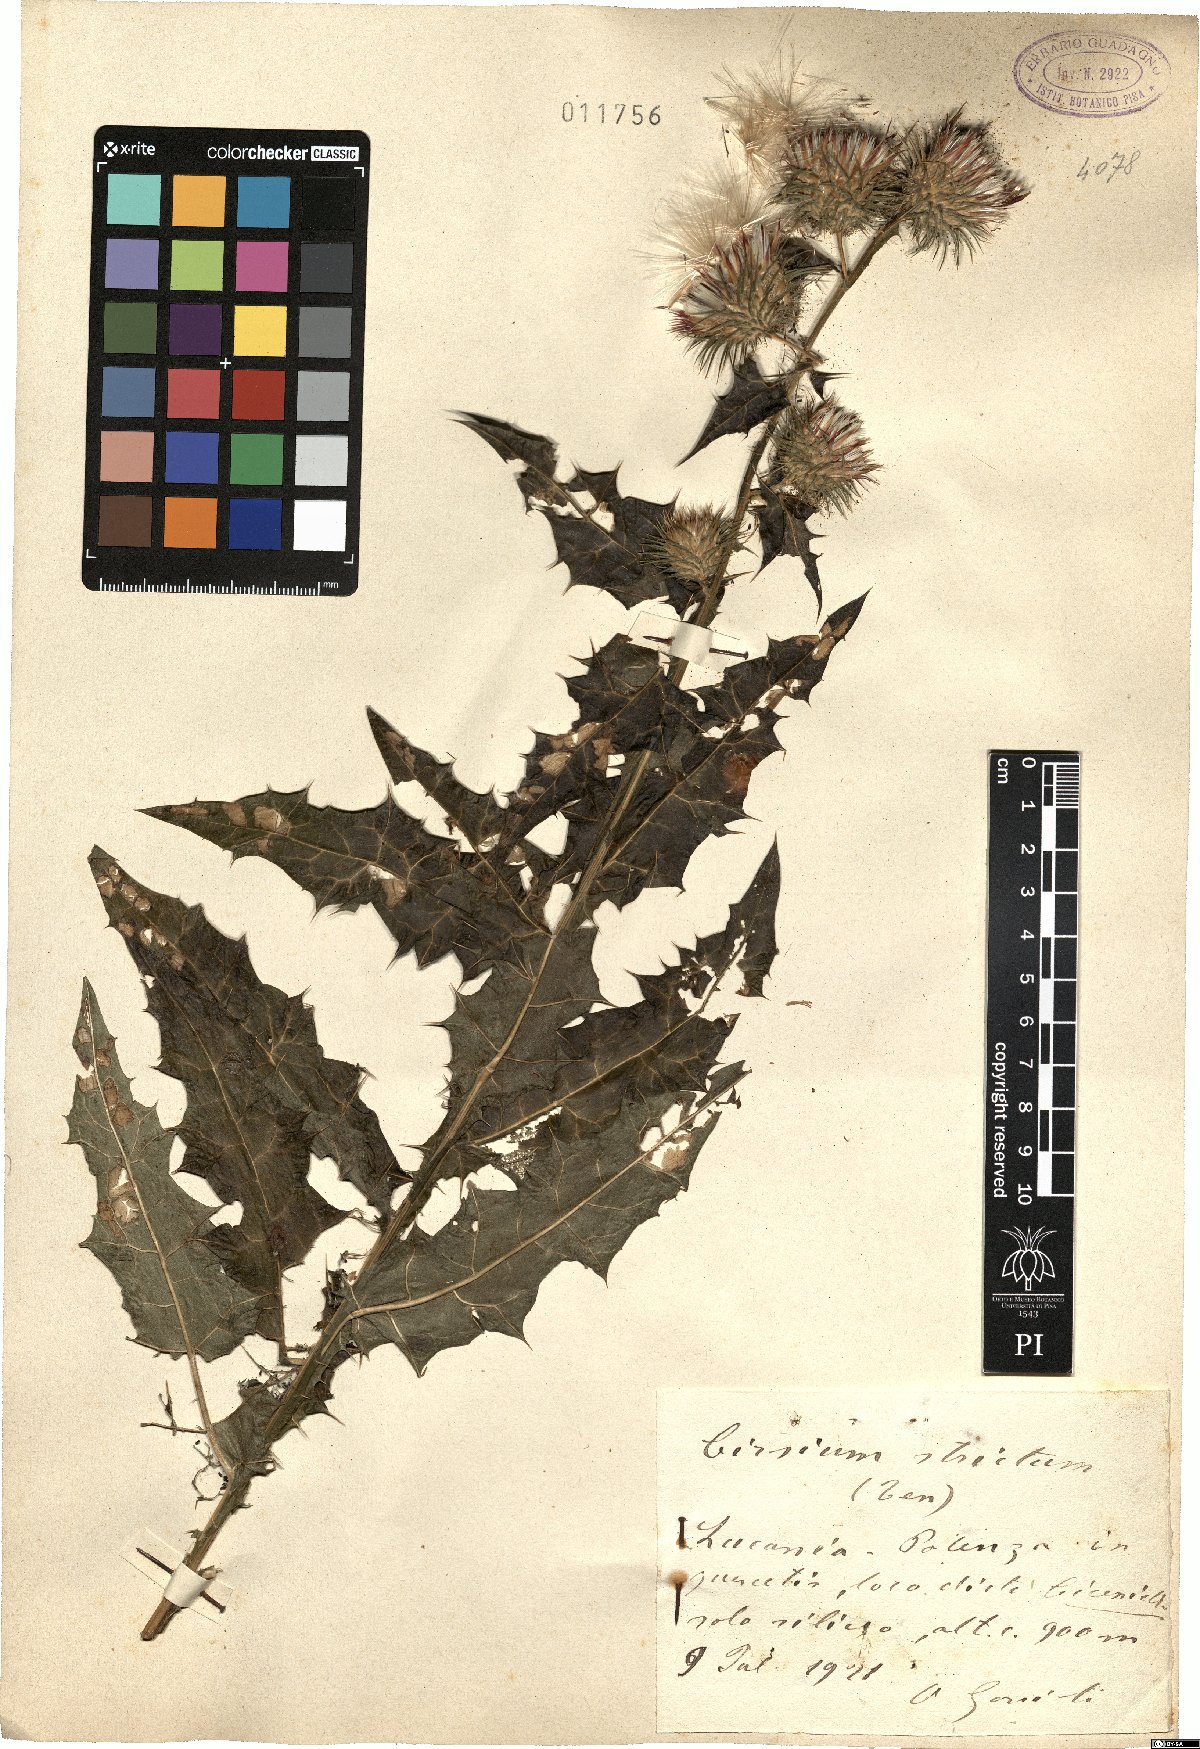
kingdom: Plantae
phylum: Tracheophyta
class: Magnoliopsida
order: Asterales
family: Asteraceae
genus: Ptilostemon
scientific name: Ptilostemon strictus
